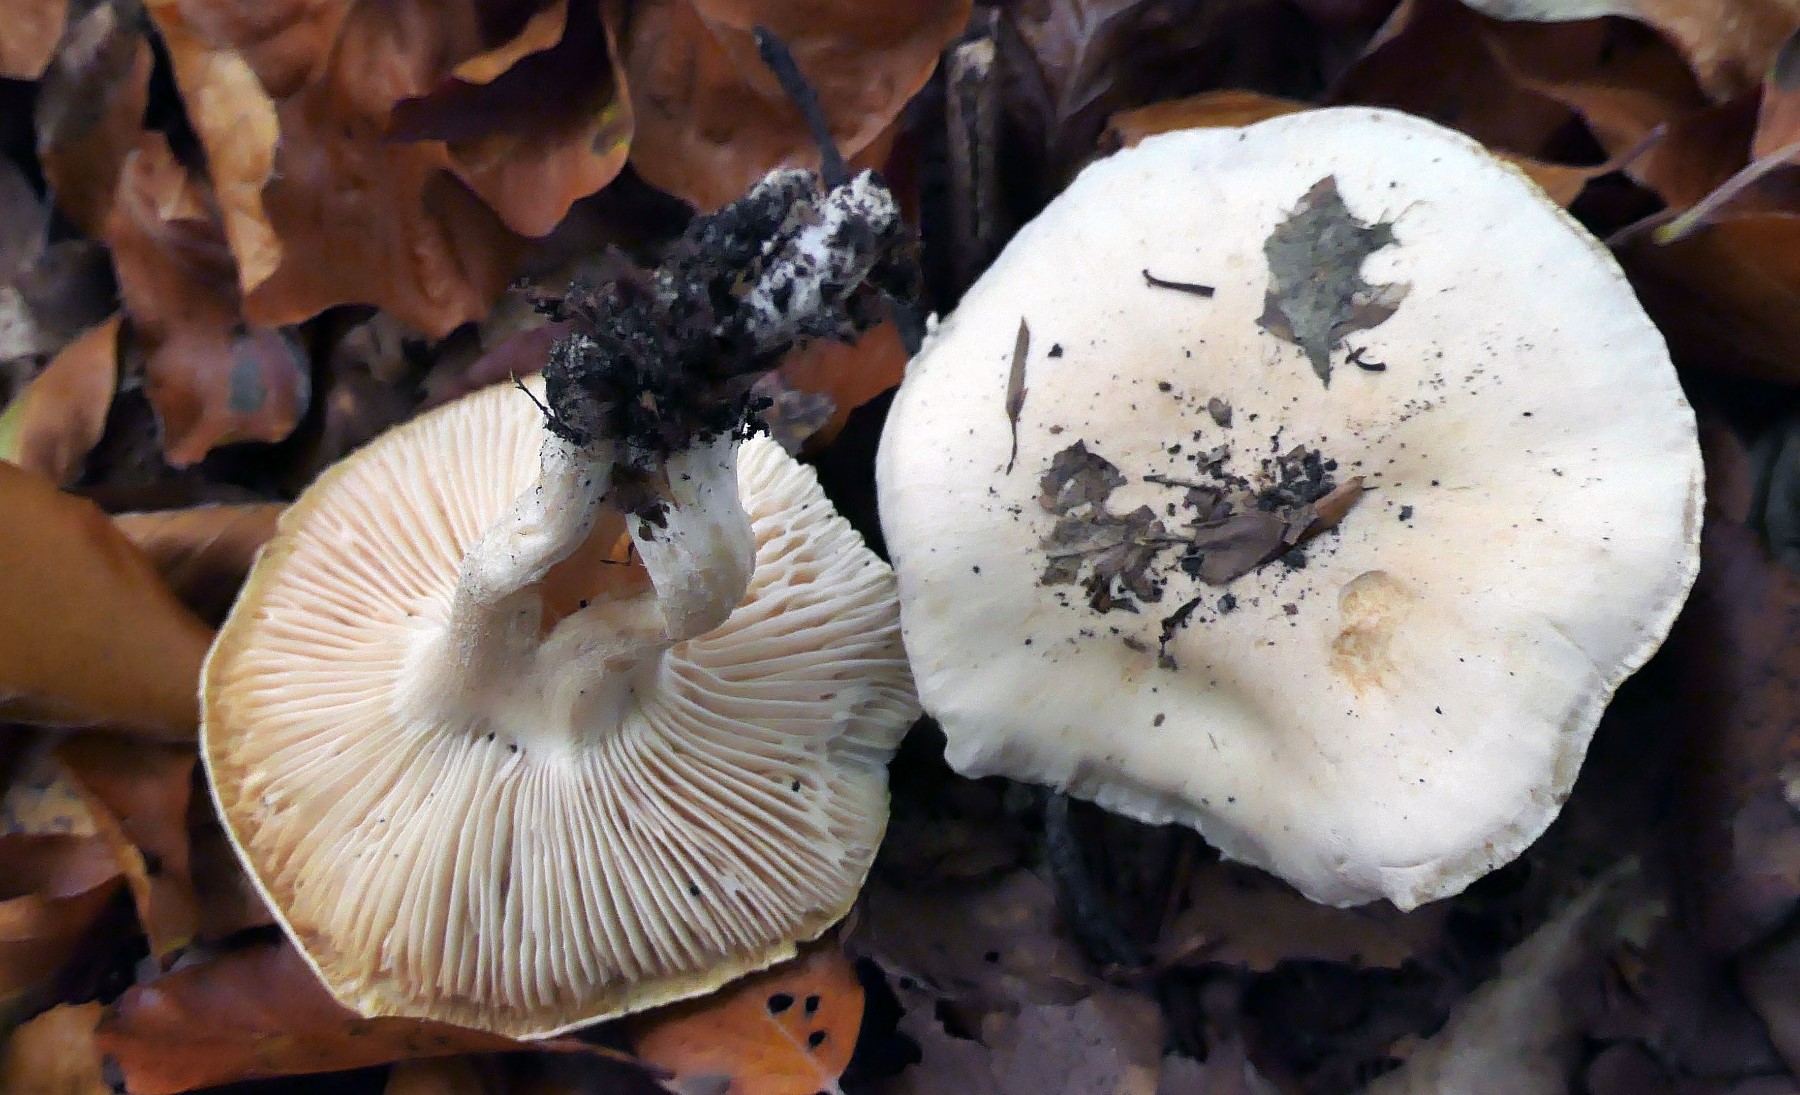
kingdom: Fungi
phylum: Basidiomycota
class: Agaricomycetes
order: Agaricales
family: Hygrophoraceae
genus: Hygrophorus
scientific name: Hygrophorus penarius
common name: spiselig sneglehat
